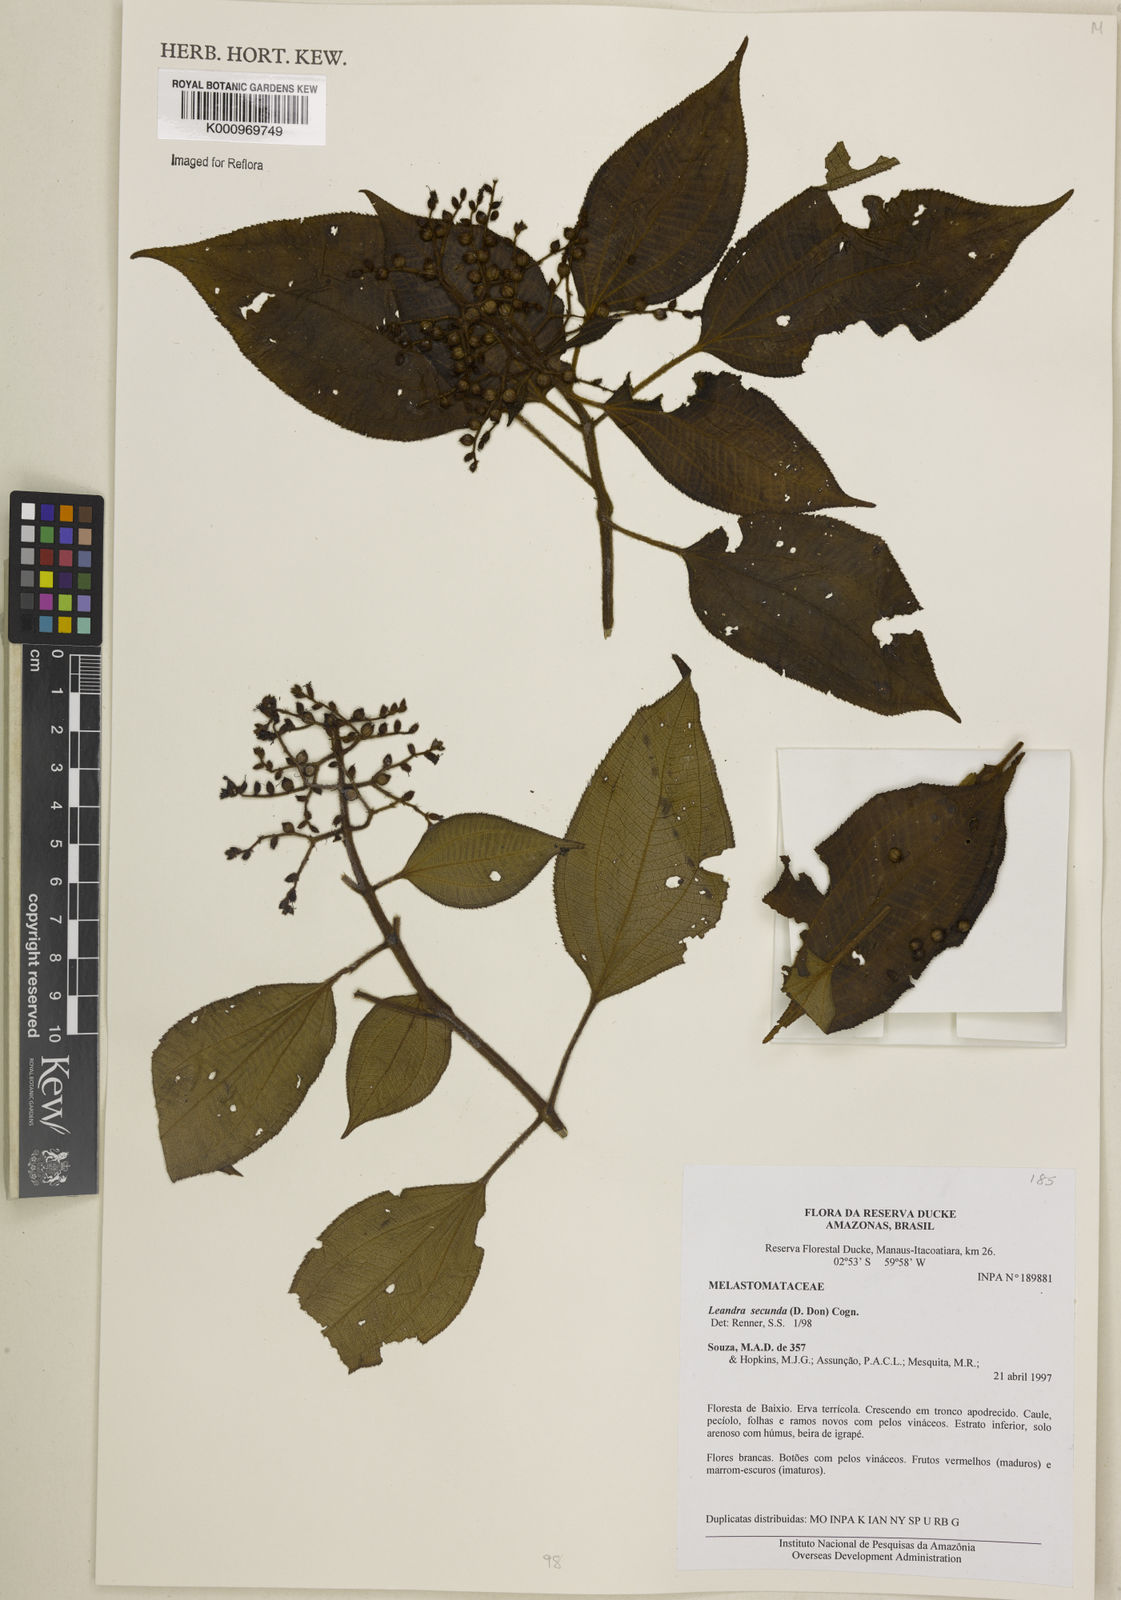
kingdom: Plantae
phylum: Tracheophyta
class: Magnoliopsida
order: Myrtales
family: Melastomataceae
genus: Miconia
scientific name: Miconia neosecunda
